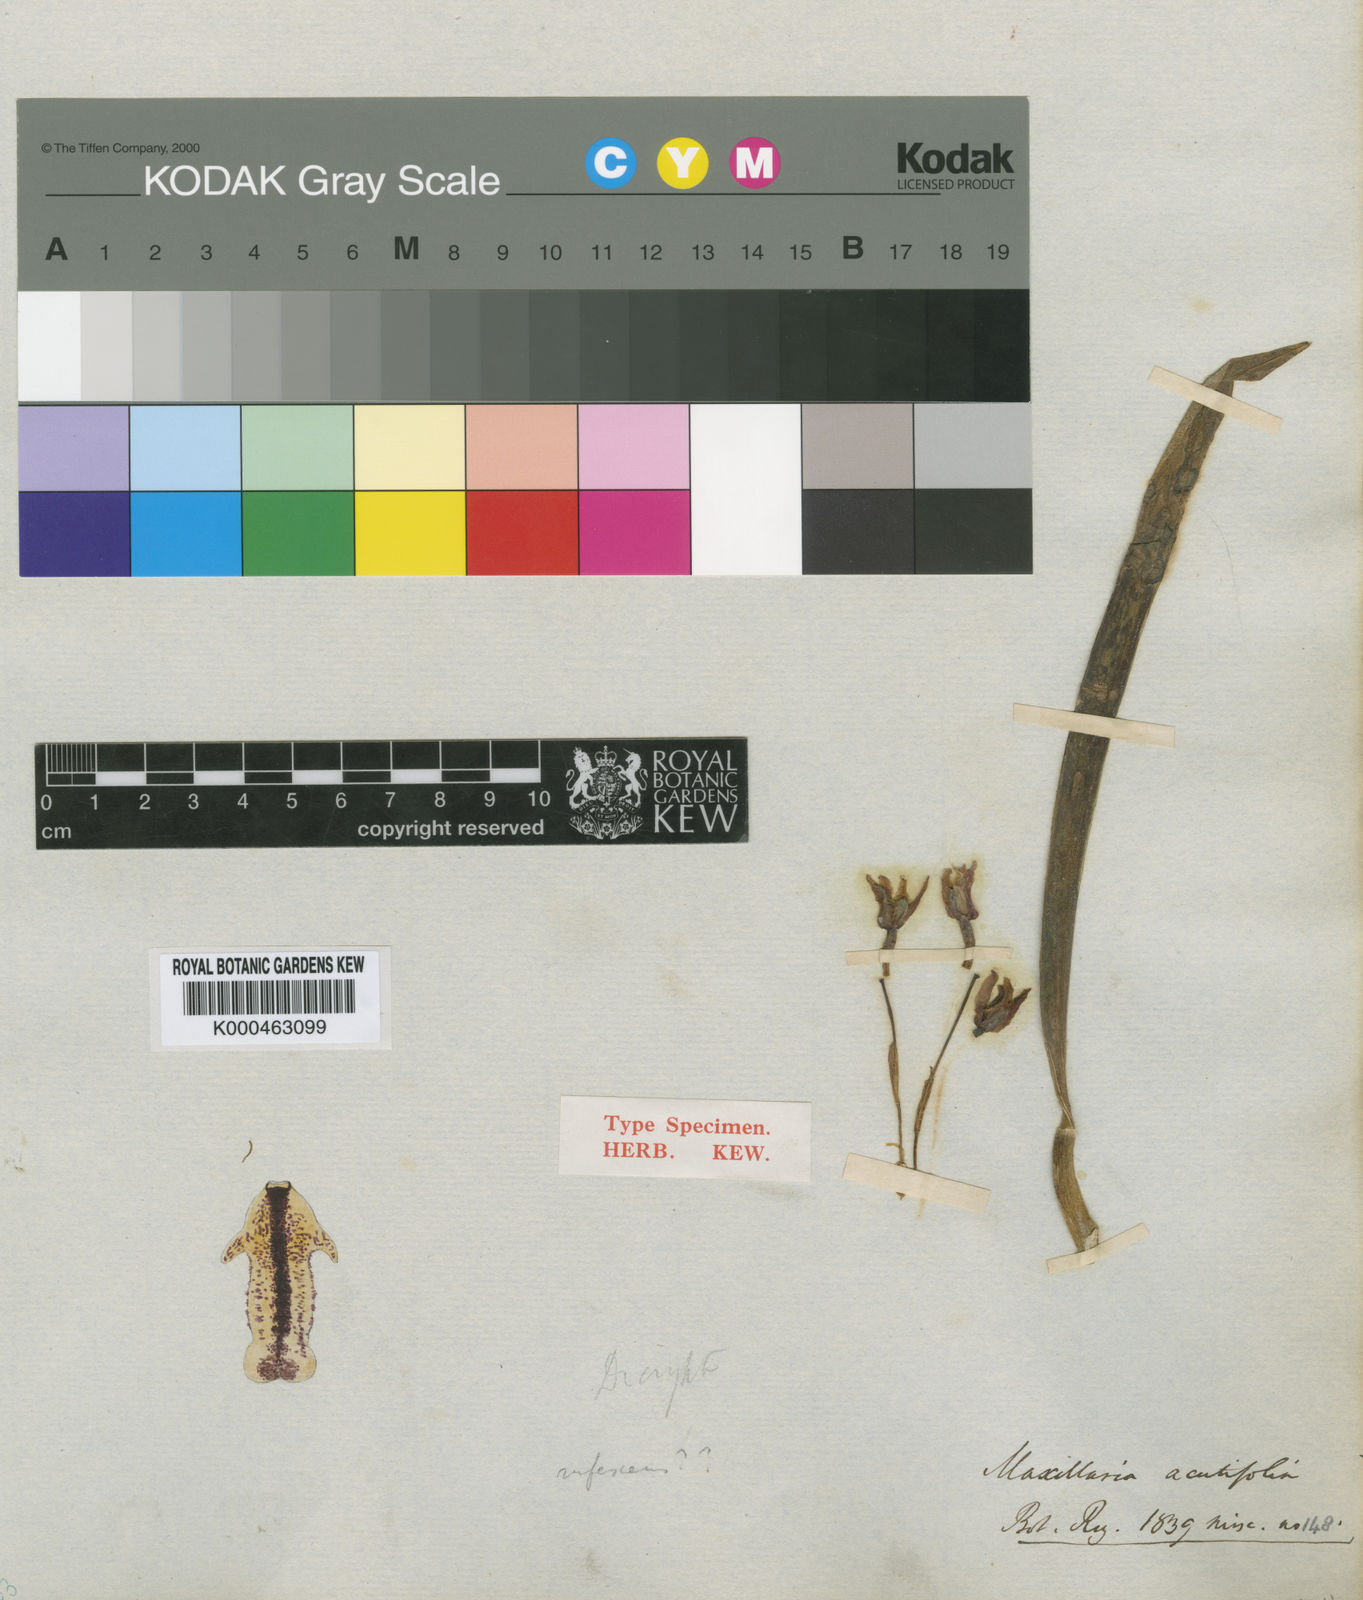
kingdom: Plantae
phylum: Tracheophyta
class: Liliopsida
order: Asparagales
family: Orchidaceae
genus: Maxillaria
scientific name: Maxillaria acutifolia
